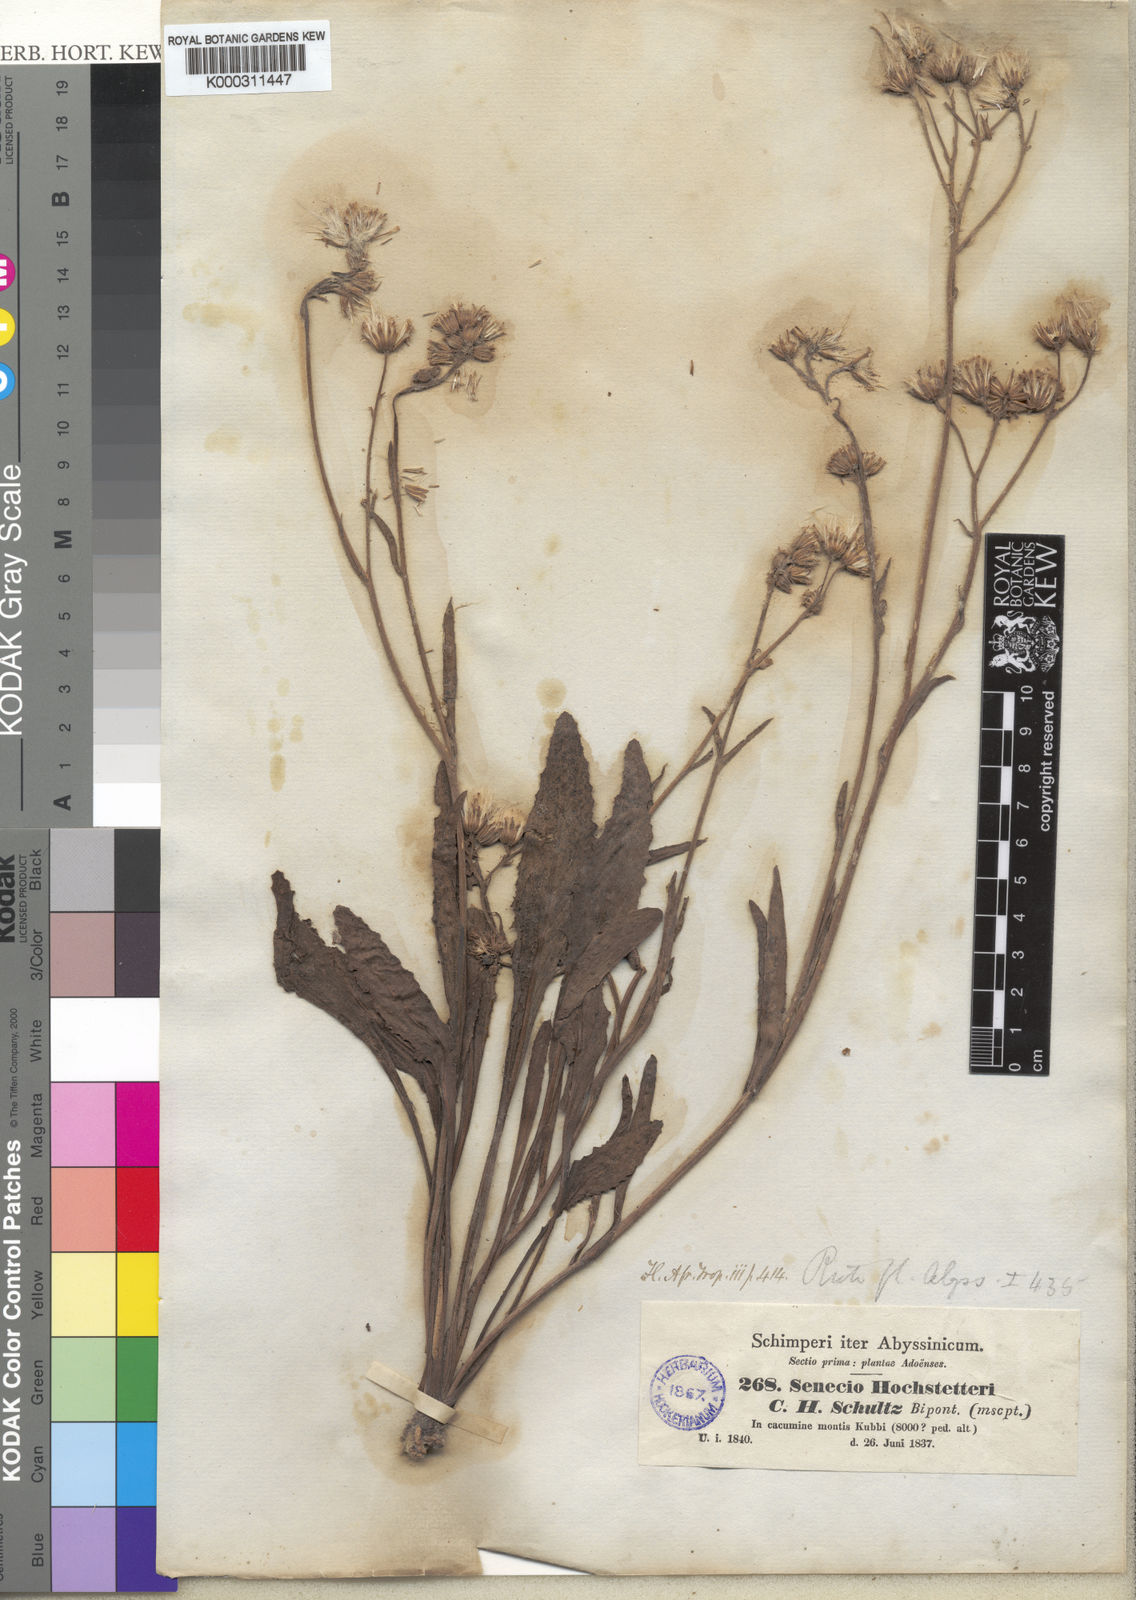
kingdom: Plantae
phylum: Tracheophyta
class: Magnoliopsida
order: Asterales
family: Asteraceae
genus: Senecio
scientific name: Senecio hochstetteri
